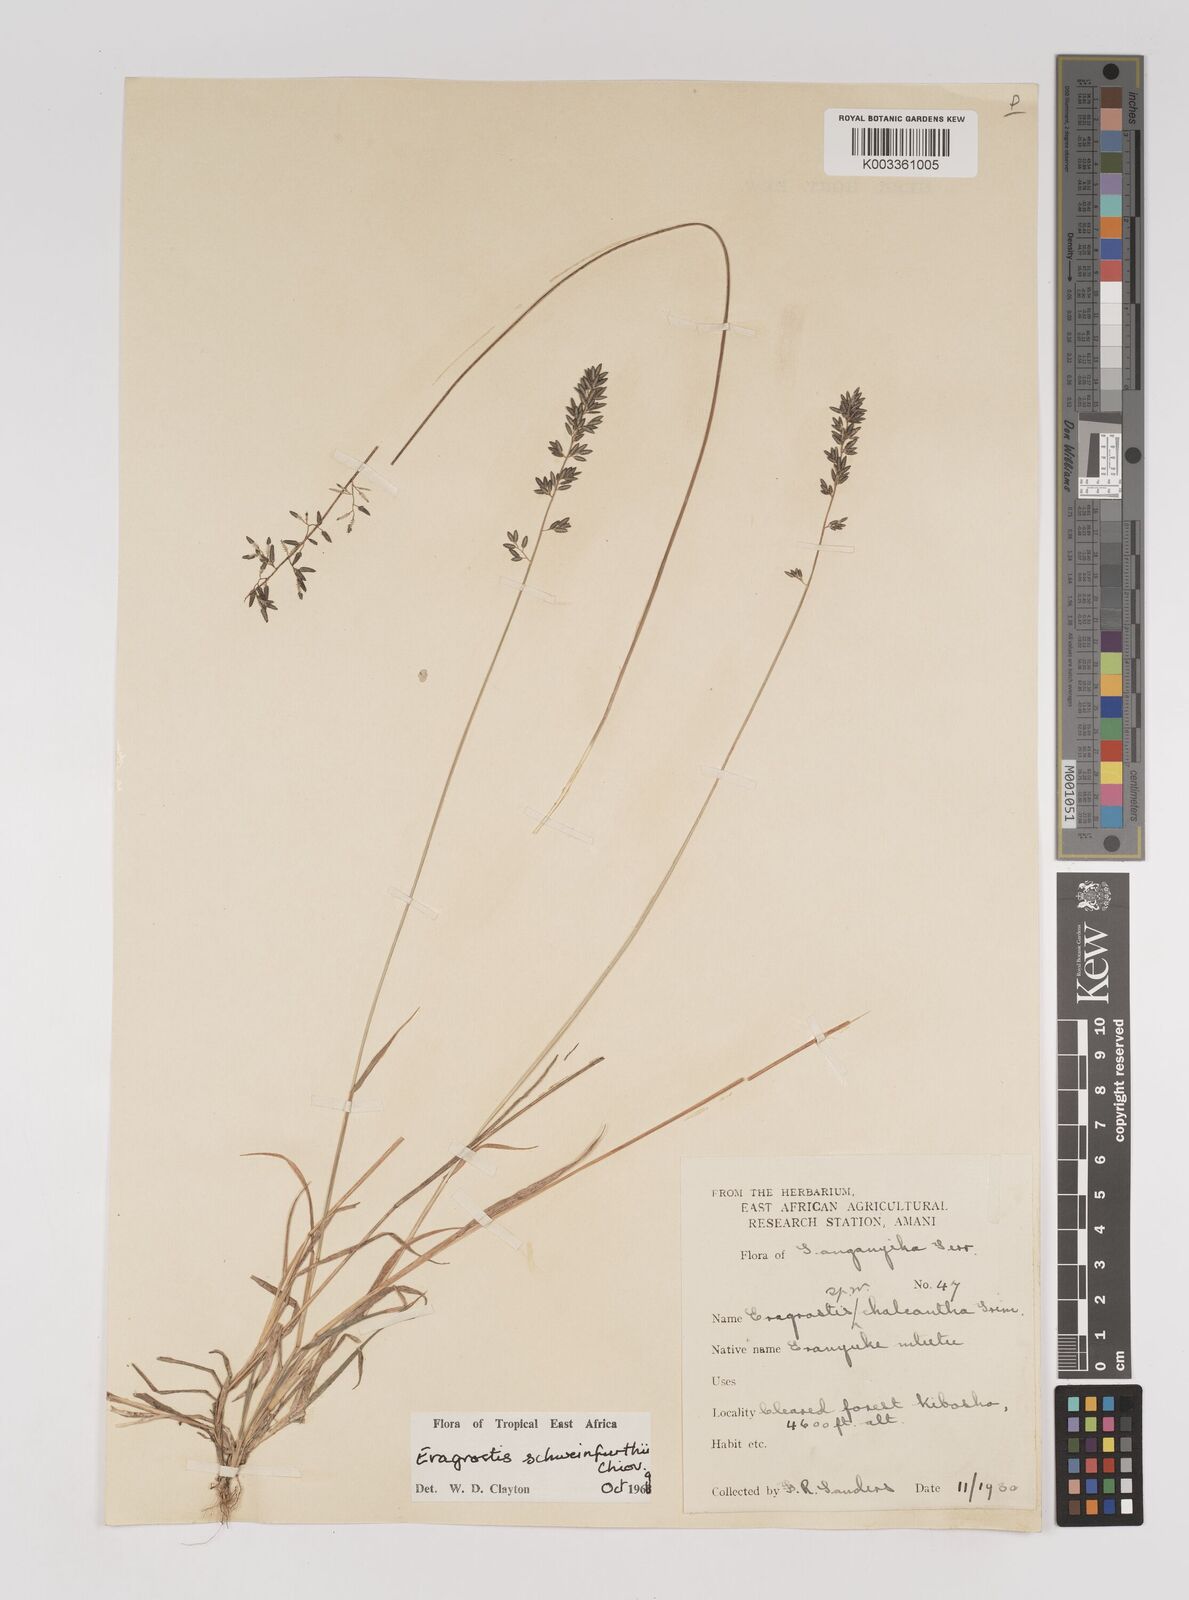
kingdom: Plantae
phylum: Tracheophyta
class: Liliopsida
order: Poales
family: Poaceae
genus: Eragrostis
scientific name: Eragrostis schweinfurthii
